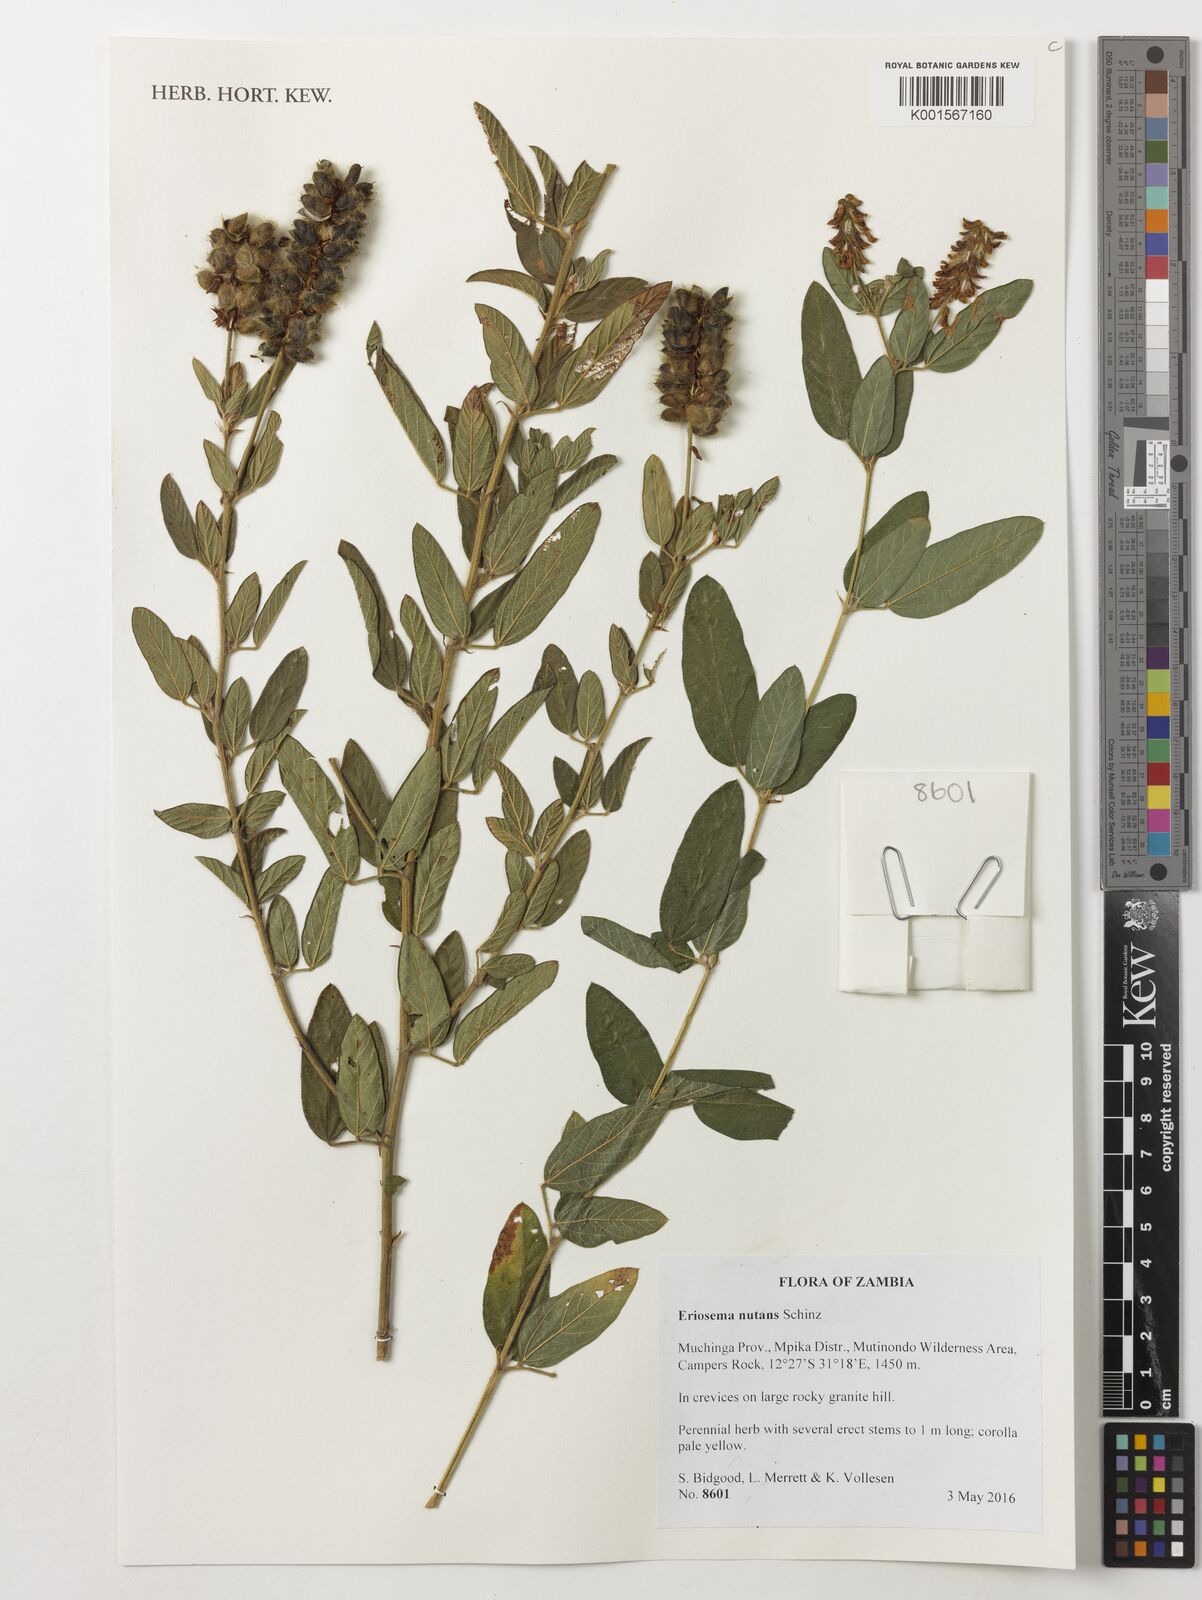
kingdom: Plantae
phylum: Tracheophyta
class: Magnoliopsida
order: Fabales
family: Fabaceae
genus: Eriosema
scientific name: Eriosema nutans
